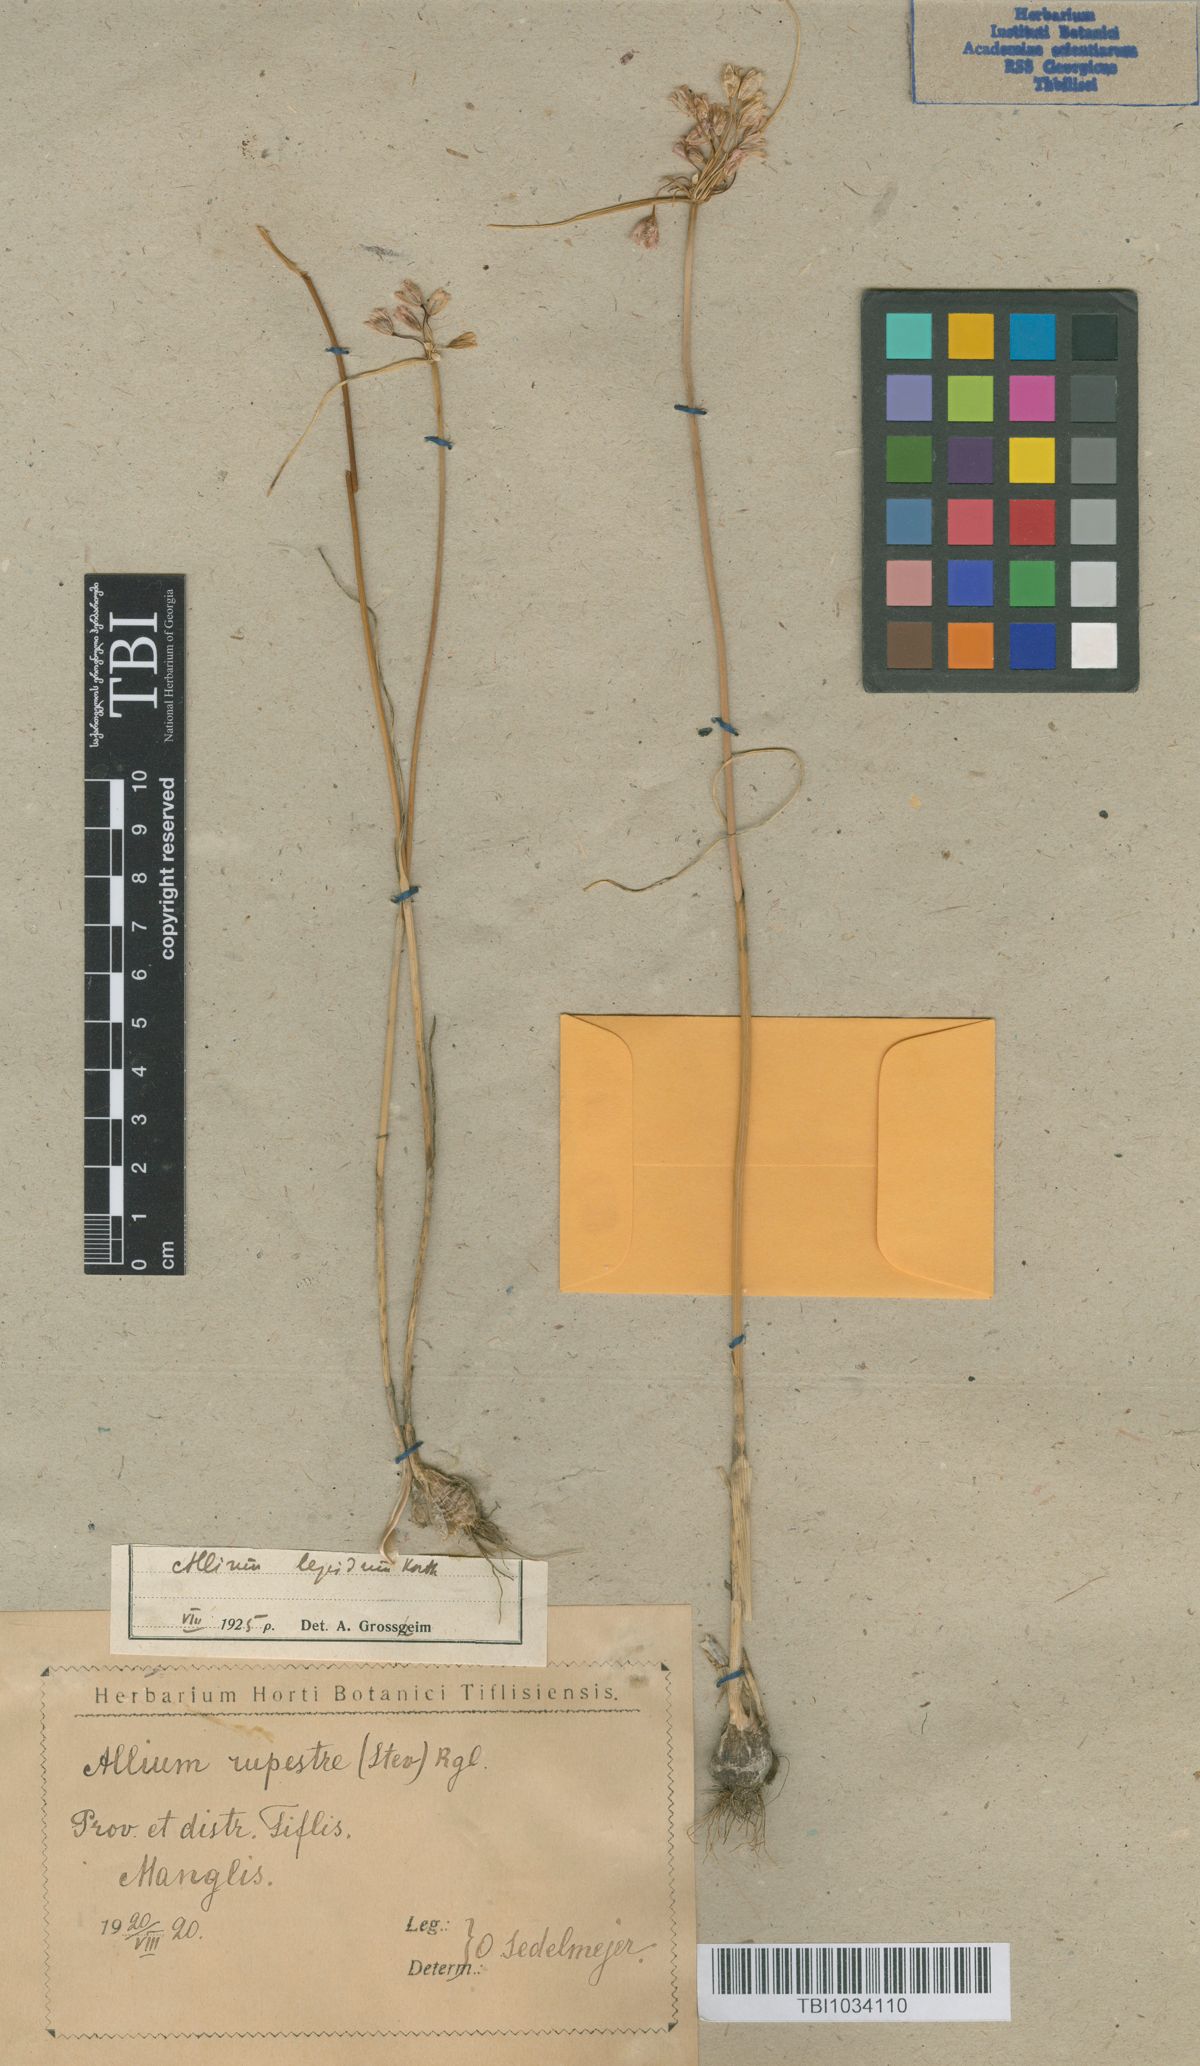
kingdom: Plantae
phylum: Tracheophyta
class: Liliopsida
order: Asparagales
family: Amaryllidaceae
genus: Allium
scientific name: Allium rubellum
